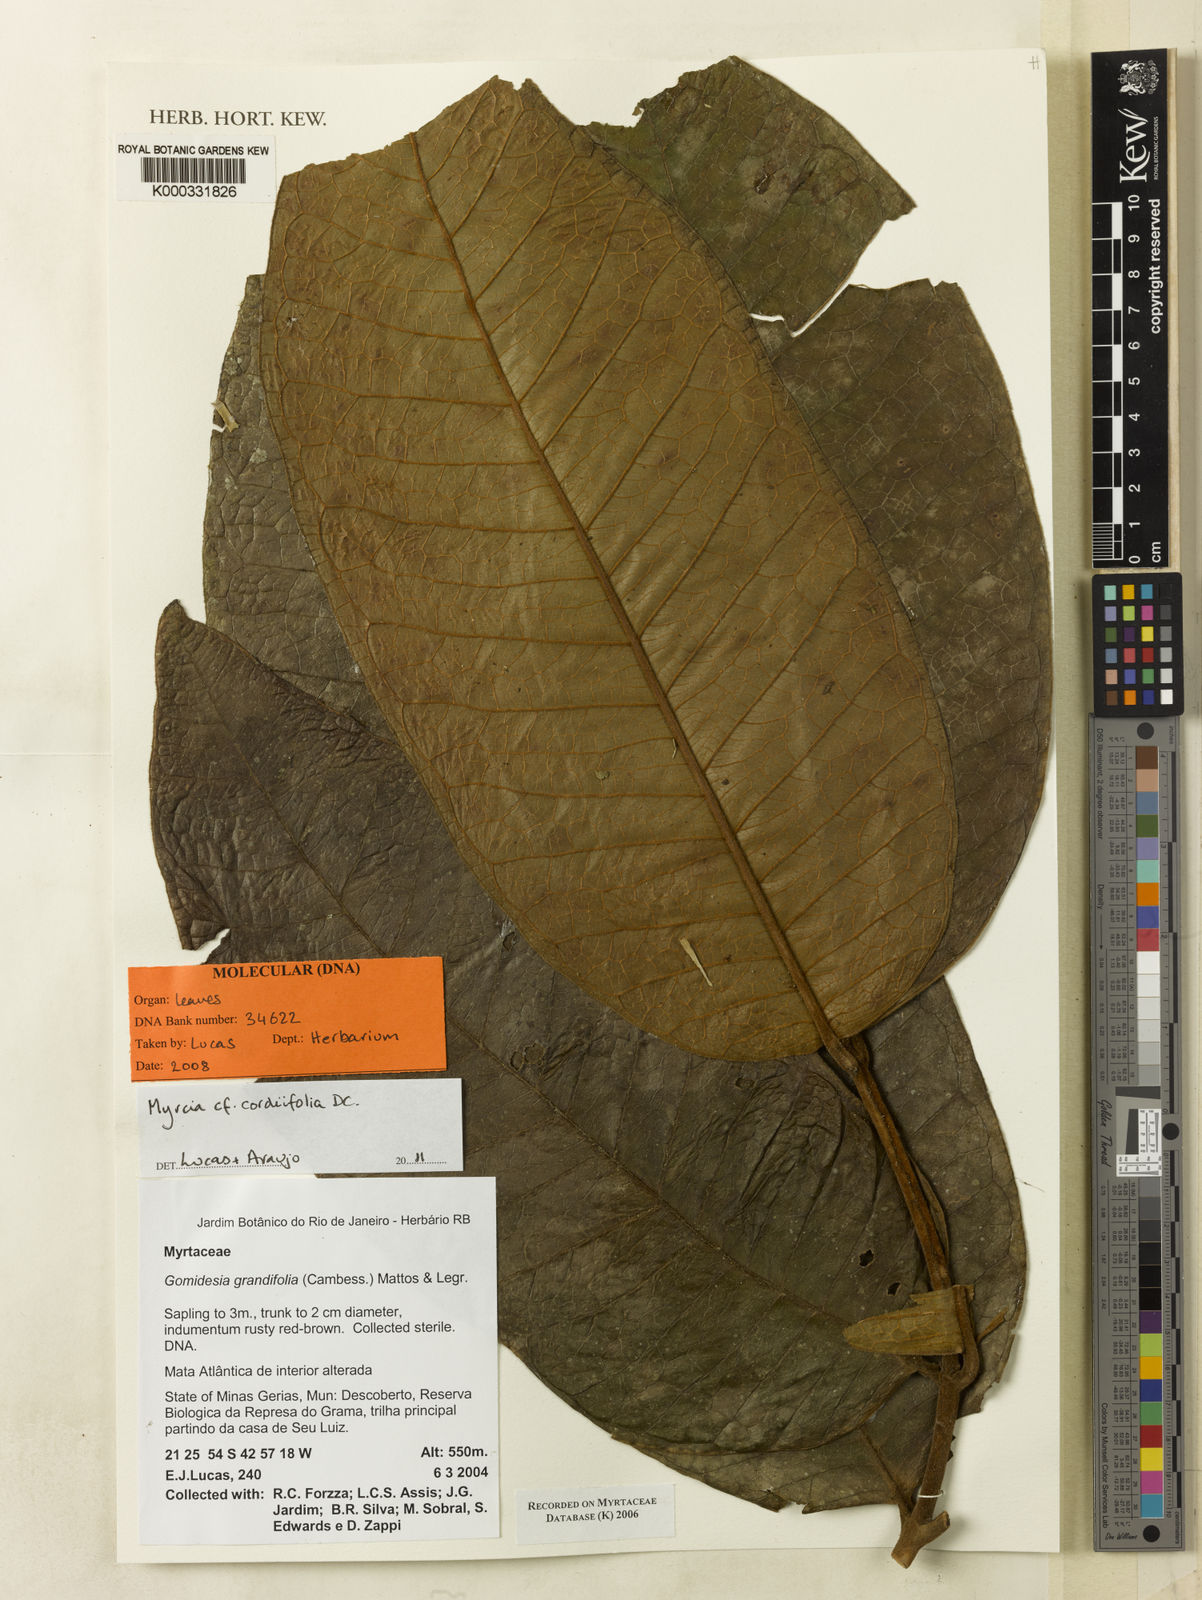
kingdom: Plantae
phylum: Tracheophyta
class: Magnoliopsida
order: Myrtales
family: Myrtaceae
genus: Myrcia
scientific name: Myrcia grandifolia
